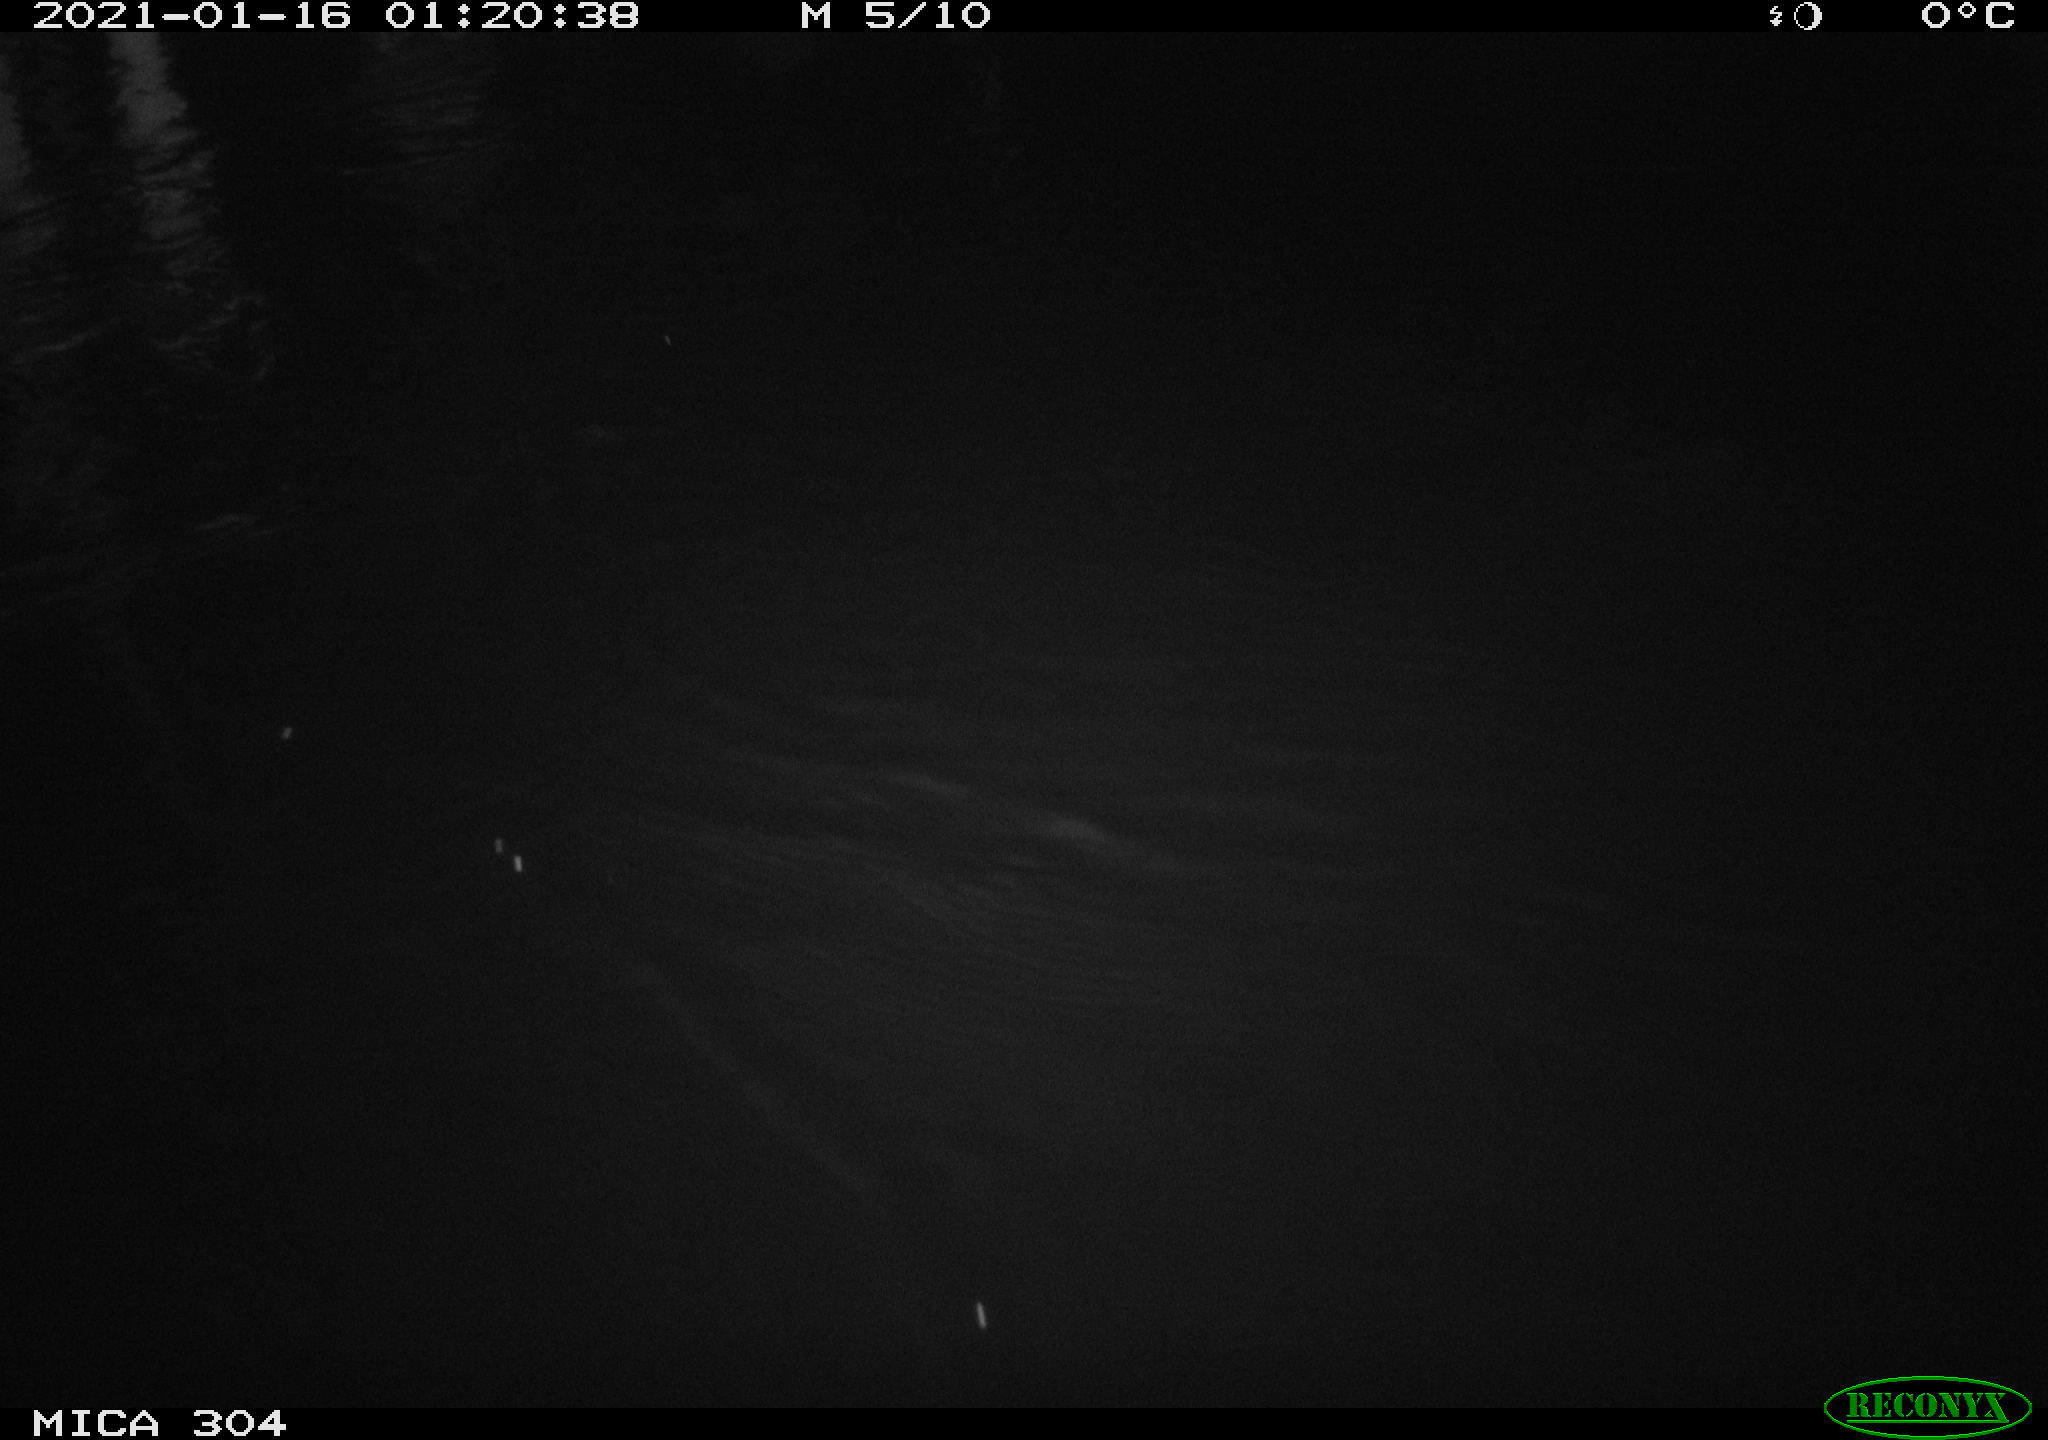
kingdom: Animalia
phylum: Chordata
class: Mammalia
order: Rodentia
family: Muridae
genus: Rattus
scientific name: Rattus norvegicus
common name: Brown rat
